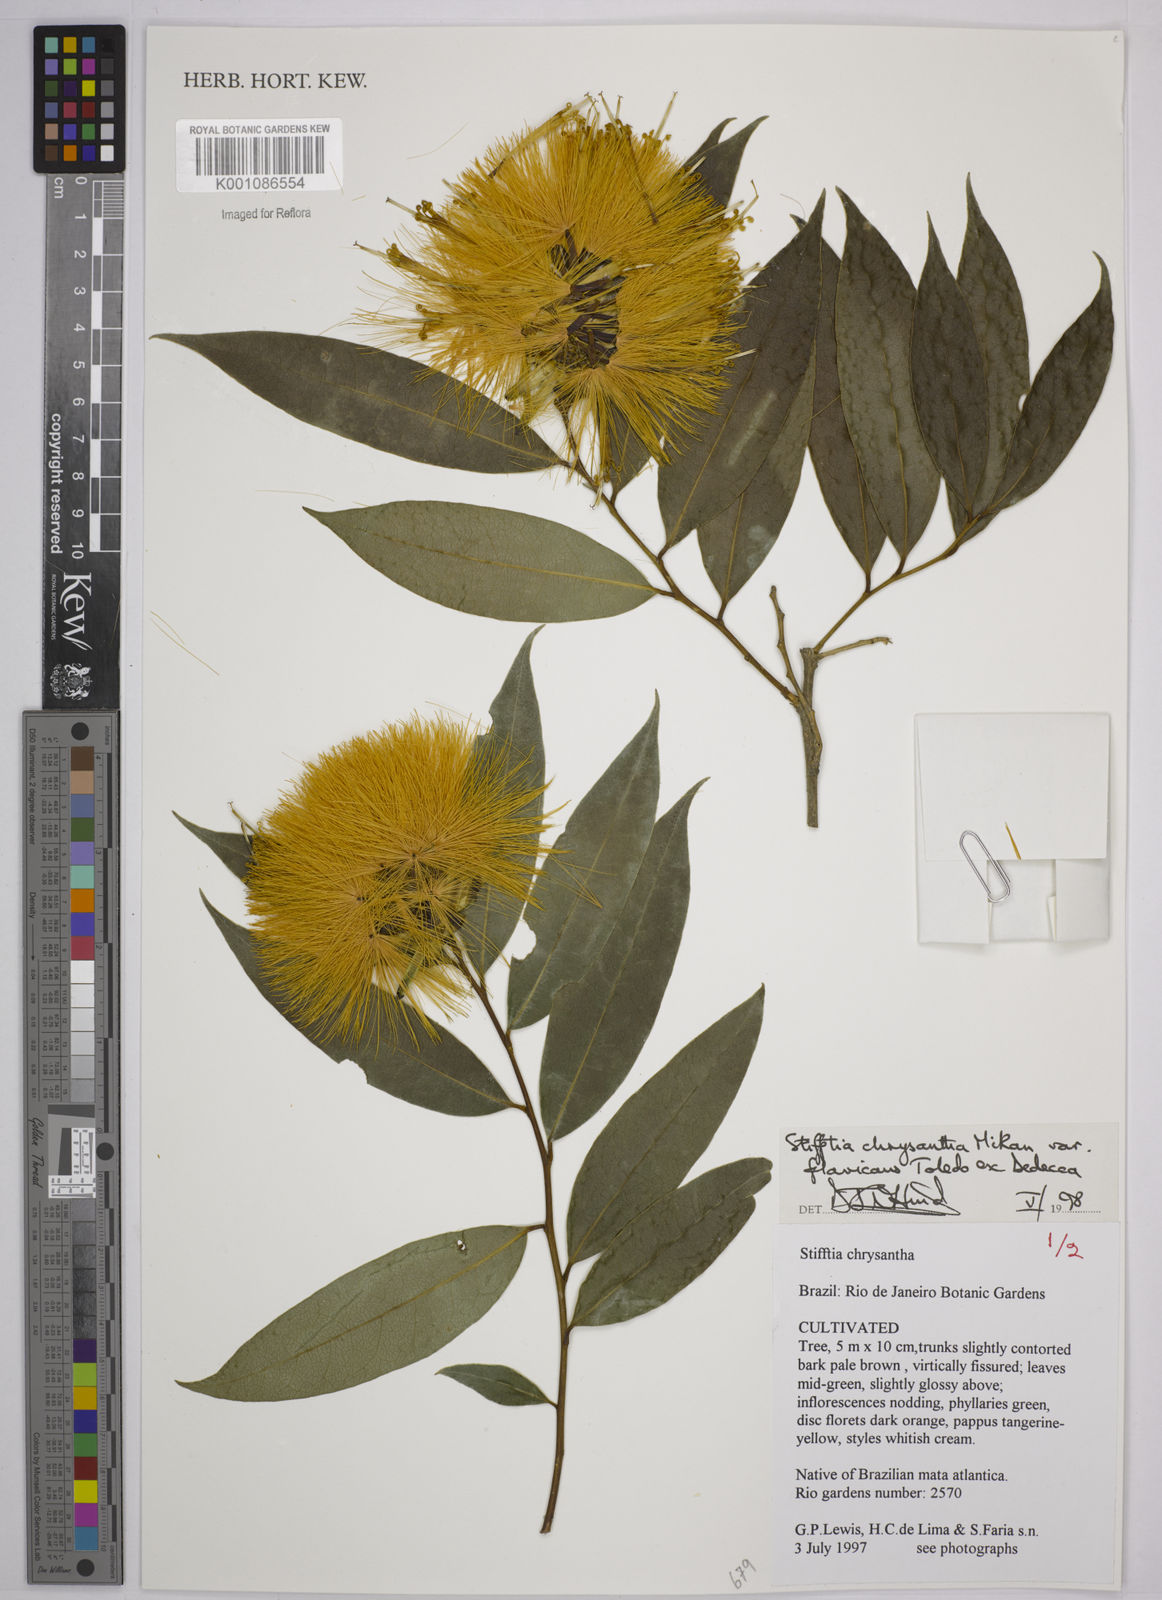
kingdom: Plantae
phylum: Tracheophyta
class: Magnoliopsida
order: Asterales
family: Asteraceae
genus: Stifftia
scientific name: Stifftia chrysantha
